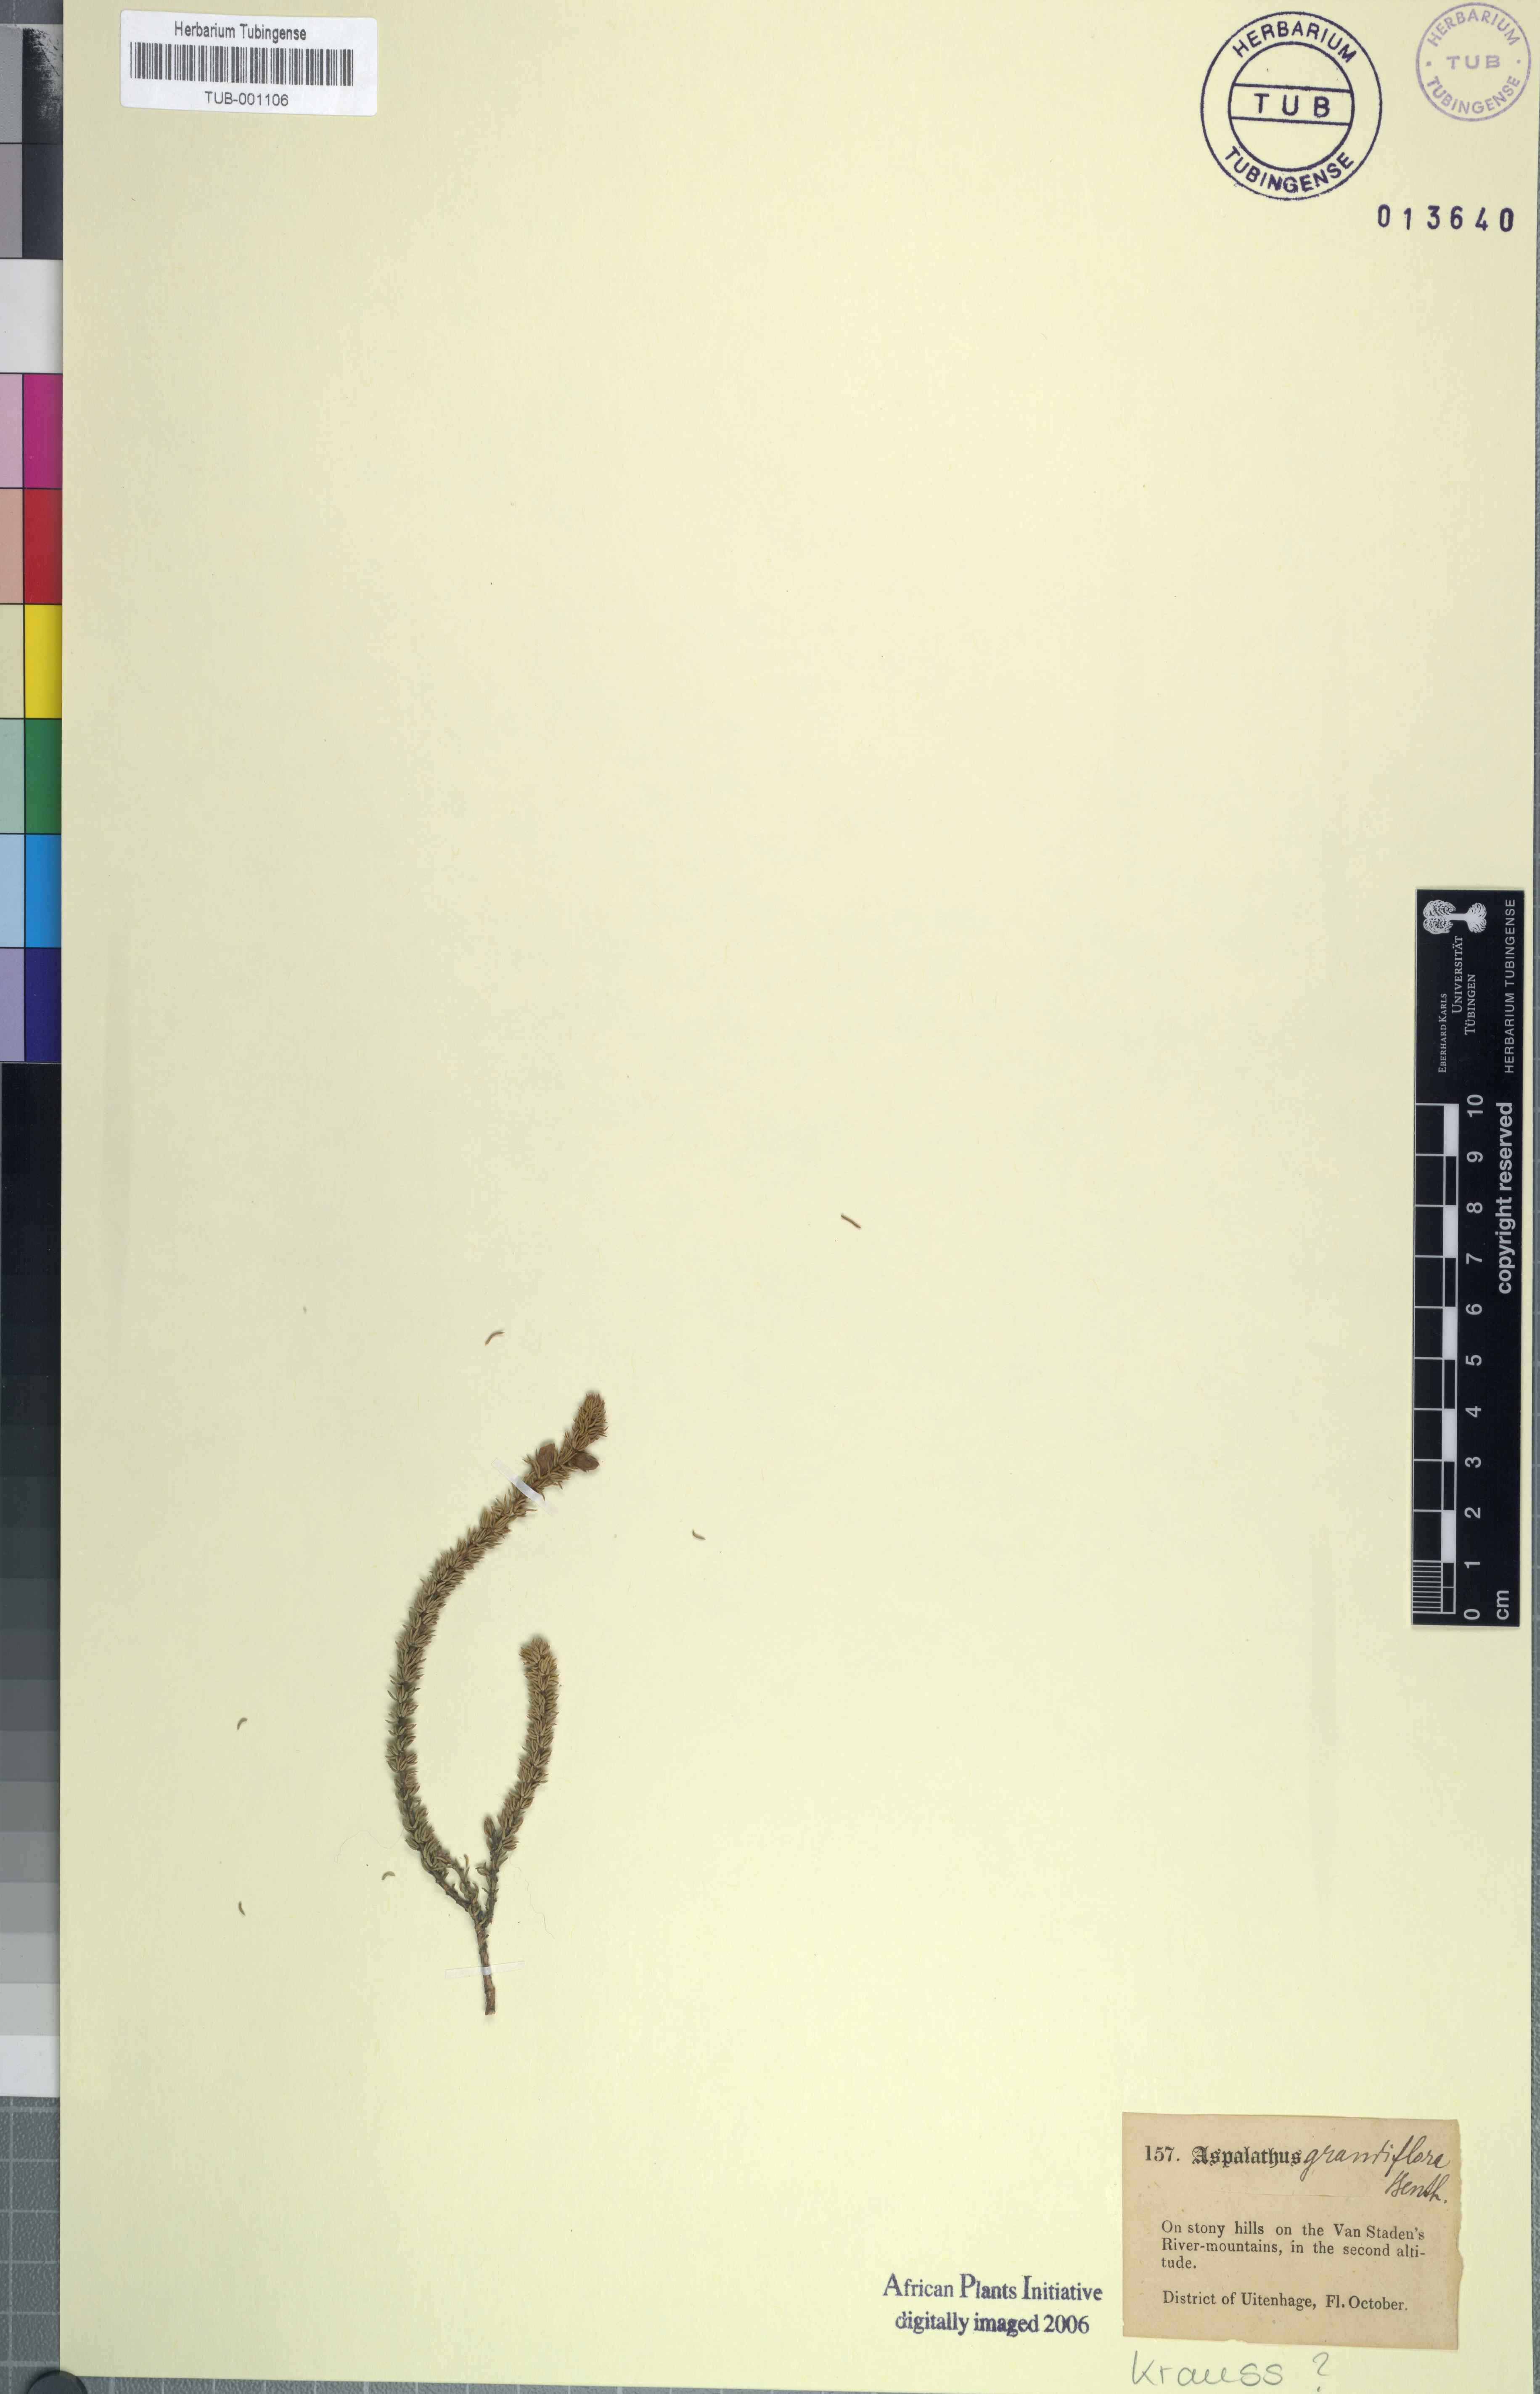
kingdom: Plantae
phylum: Tracheophyta
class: Magnoliopsida
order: Fabales
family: Fabaceae
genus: Aspalathus
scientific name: Aspalathus grandiflora
